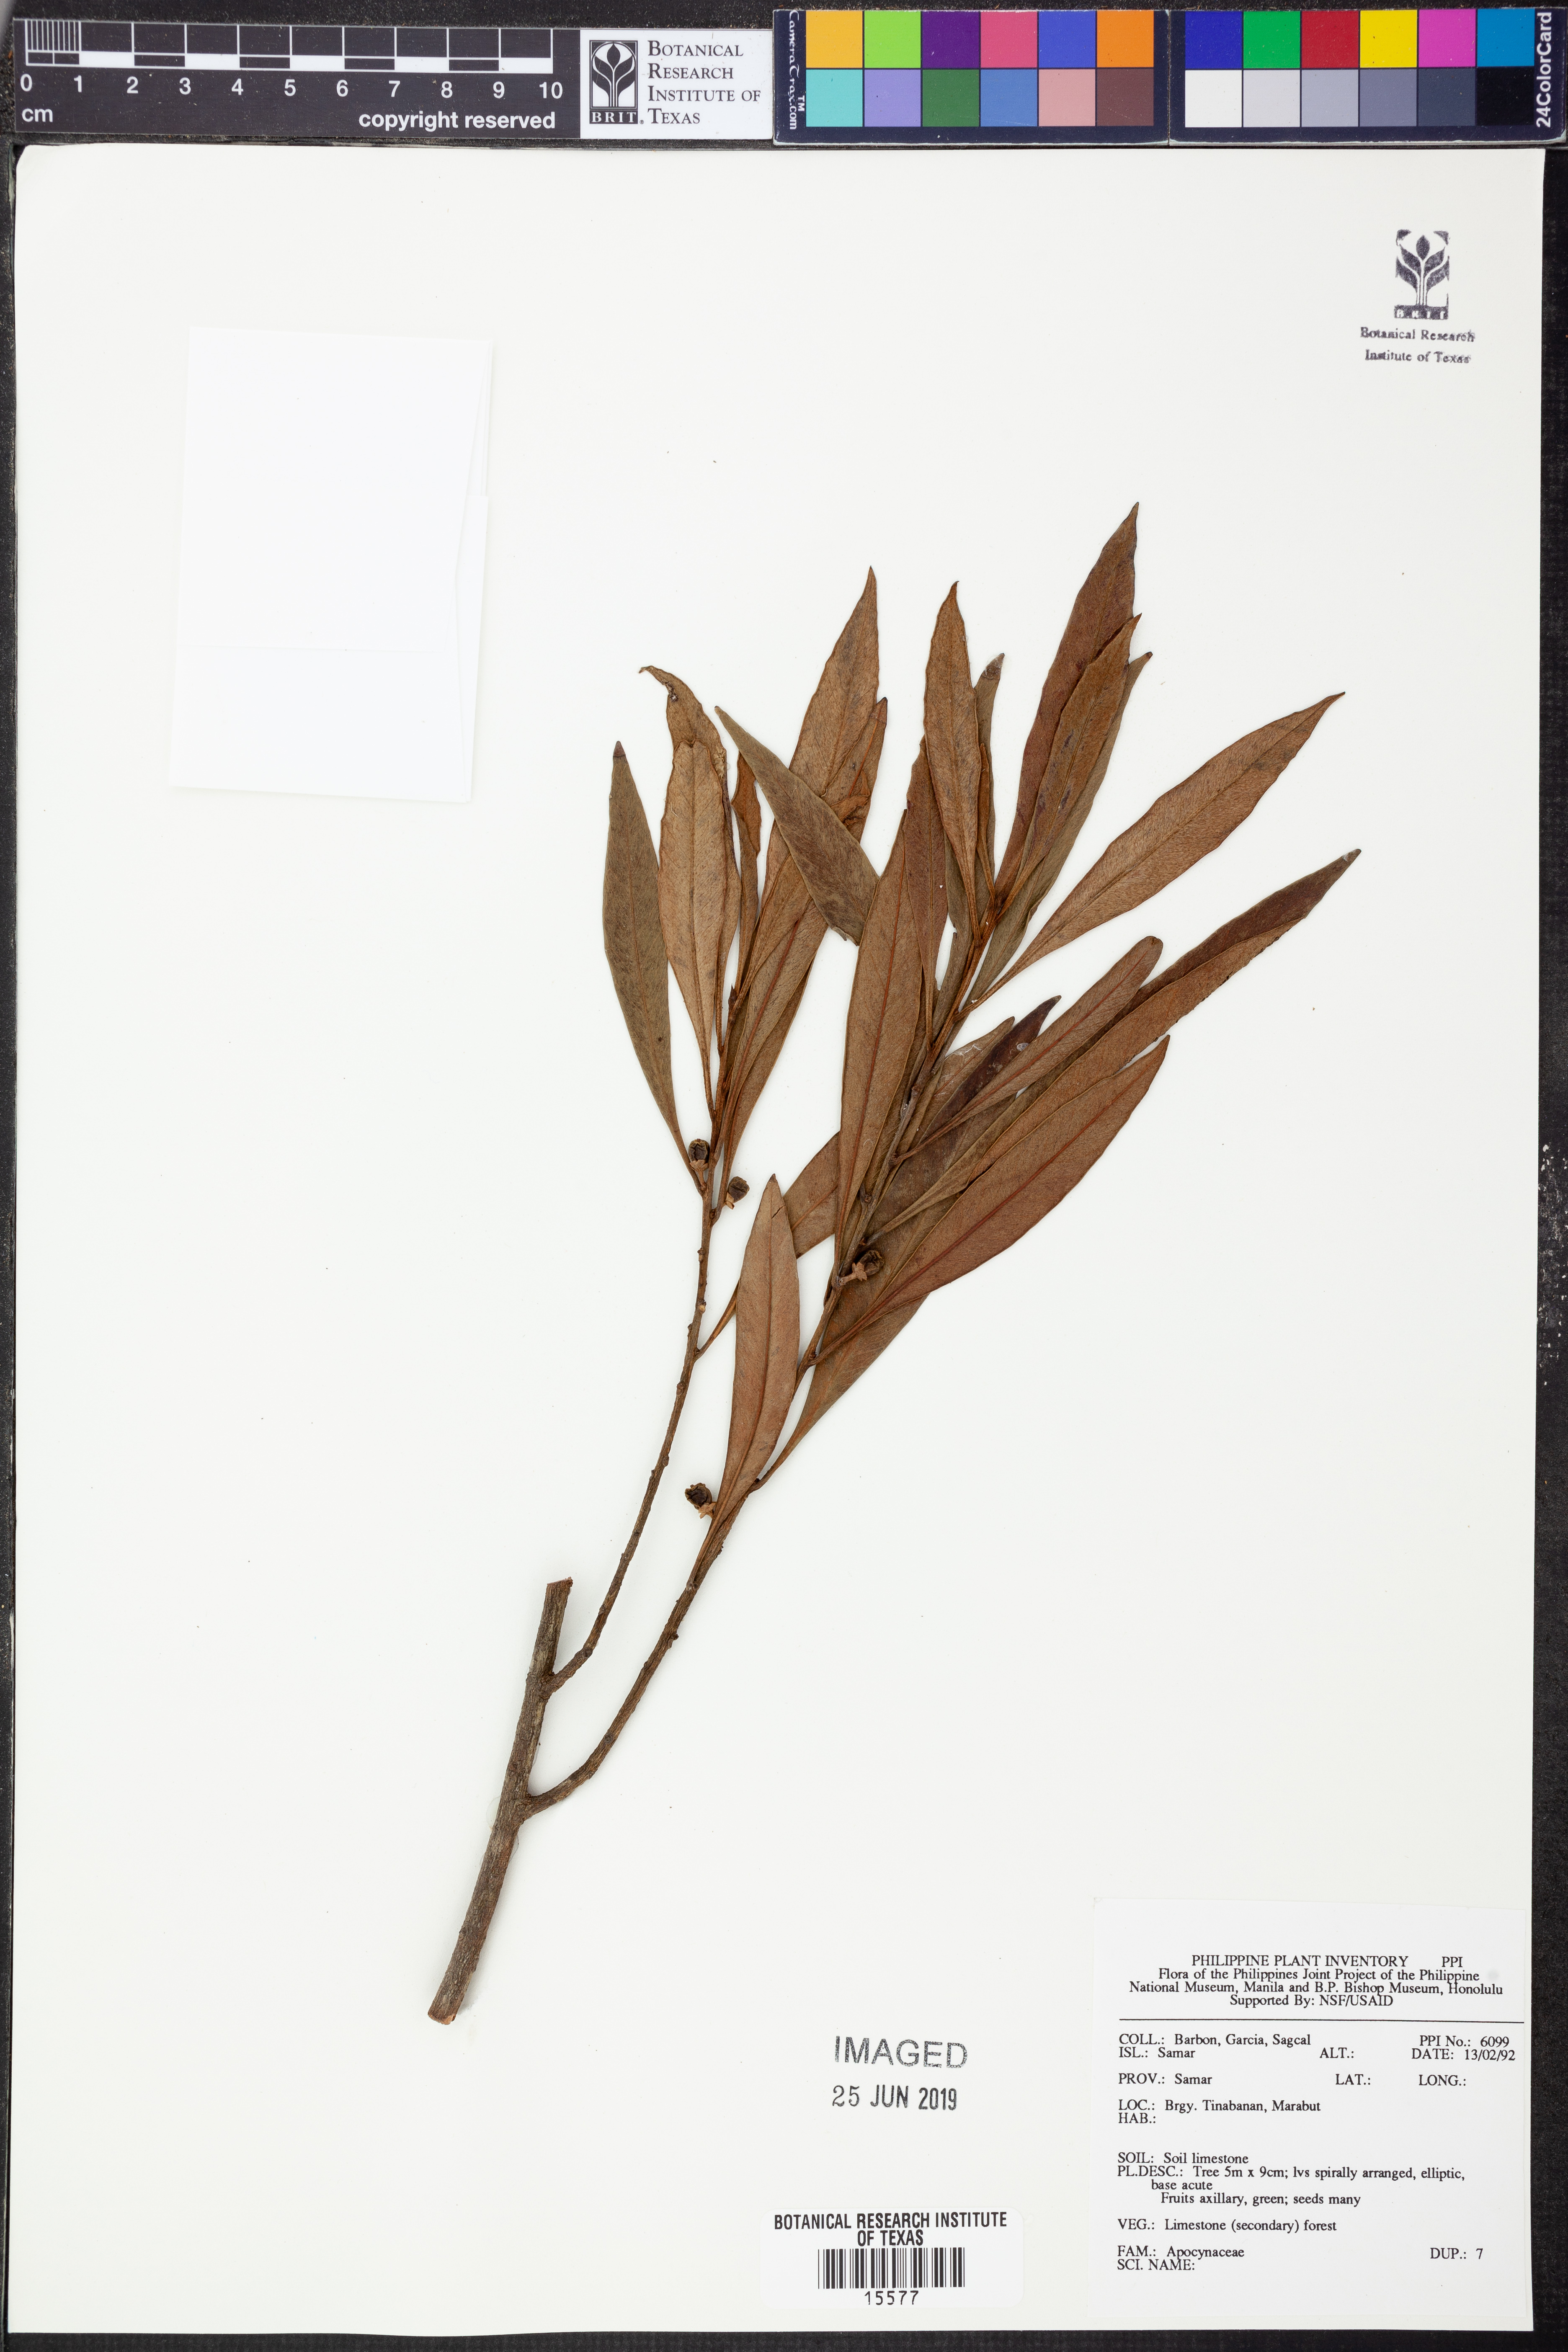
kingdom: Plantae
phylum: Tracheophyta
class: Magnoliopsida
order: Gentianales
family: Apocynaceae
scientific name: Apocynaceae
